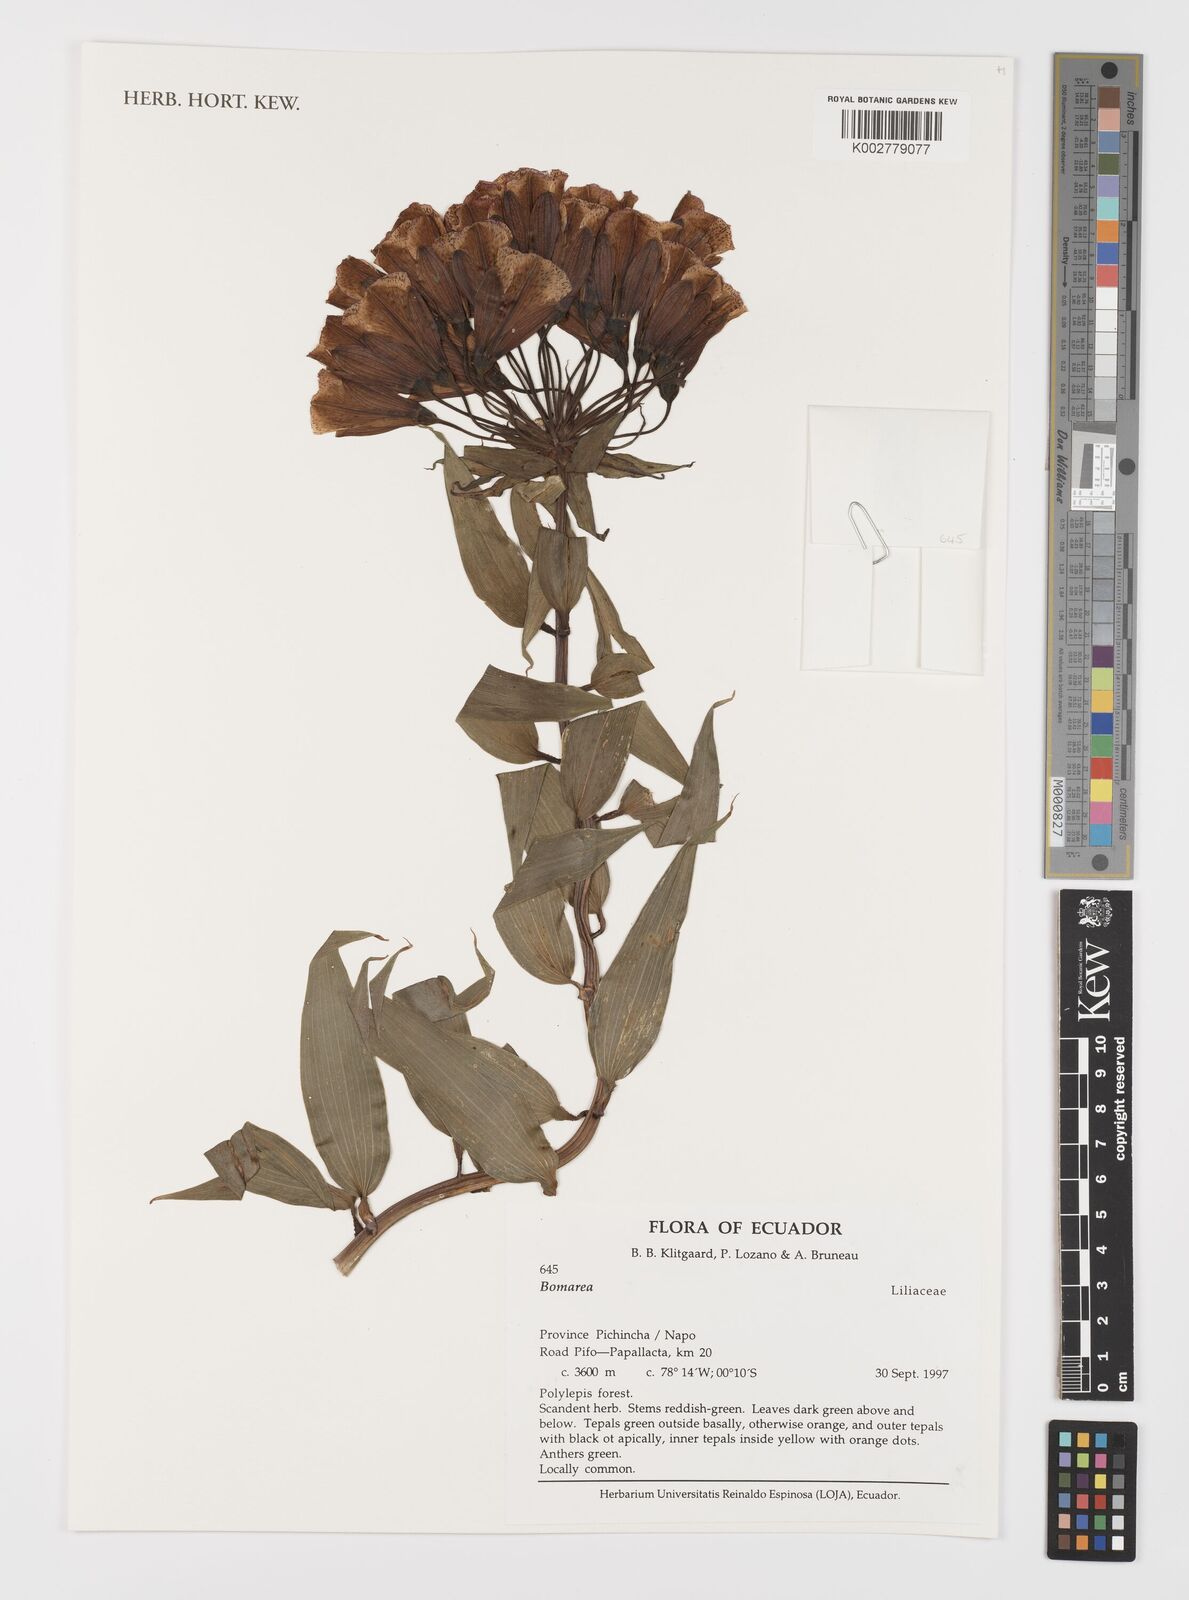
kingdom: Plantae
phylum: Tracheophyta
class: Liliopsida
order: Liliales
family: Alstroemeriaceae
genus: Bomarea
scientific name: Bomarea
